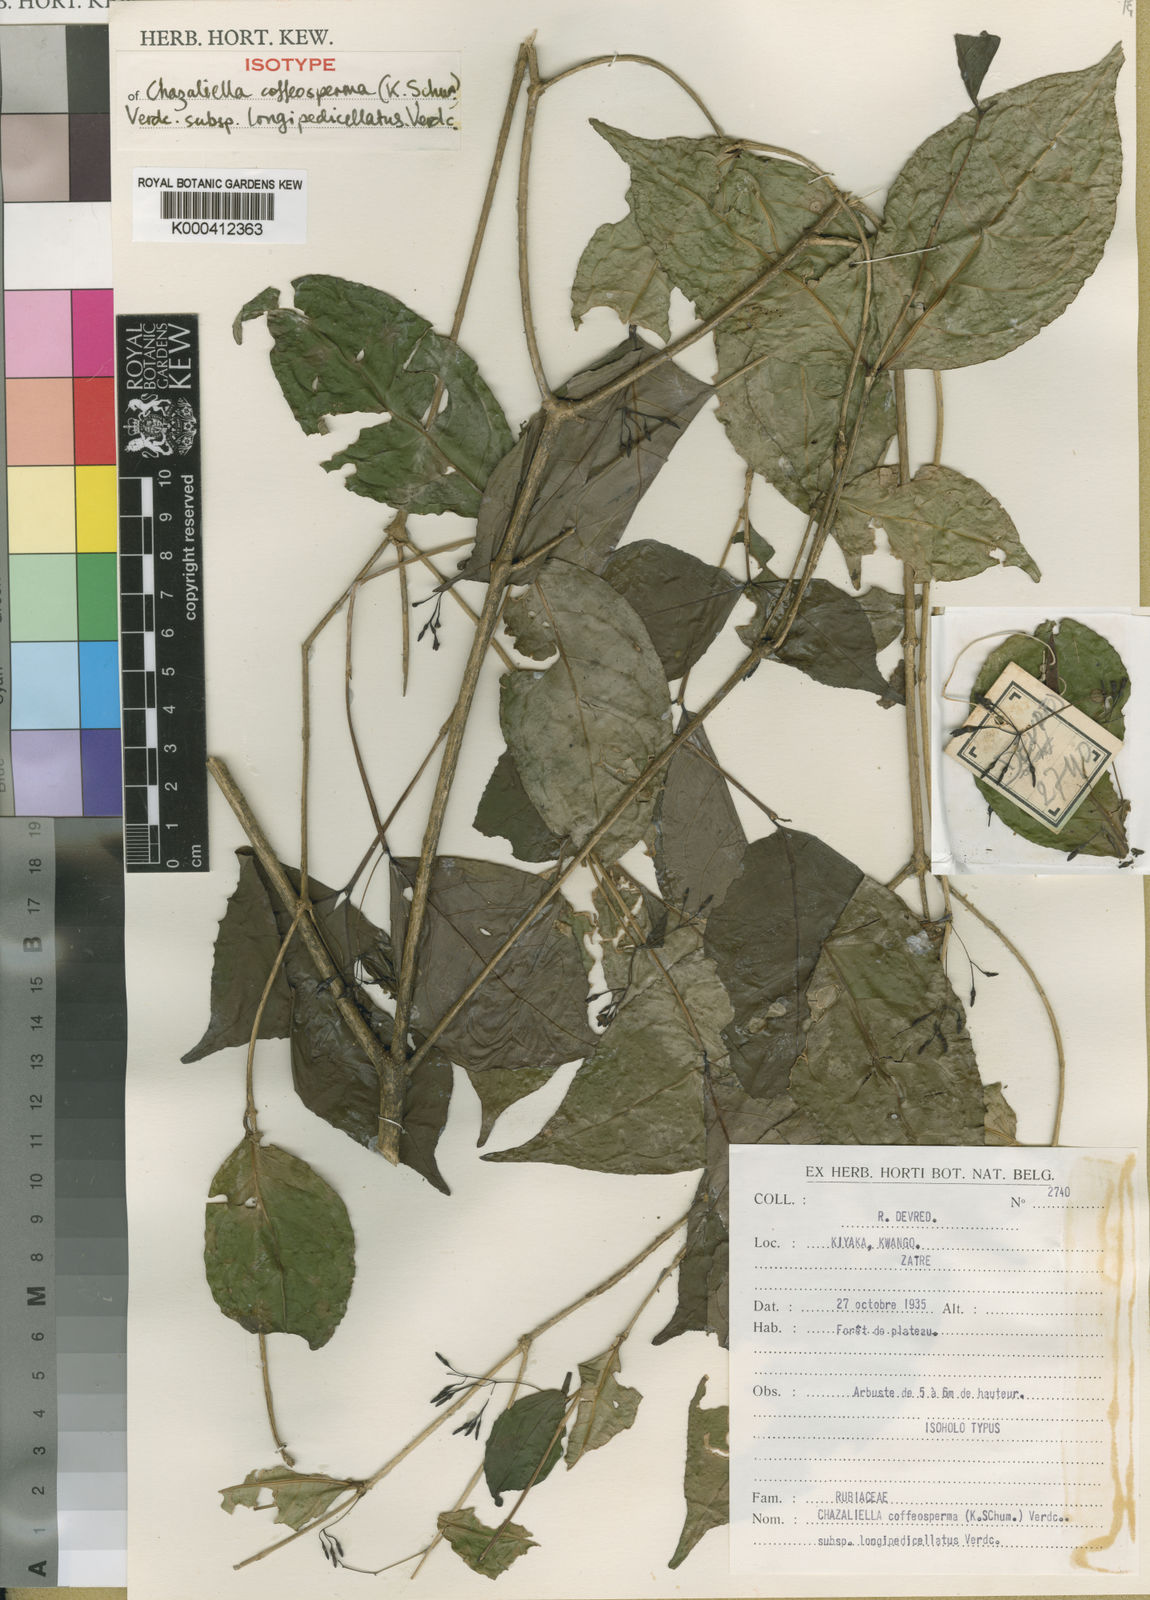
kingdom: Plantae
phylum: Tracheophyta
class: Magnoliopsida
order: Gentianales
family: Rubiaceae
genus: Eumachia
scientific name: Eumachia coffeosperma
